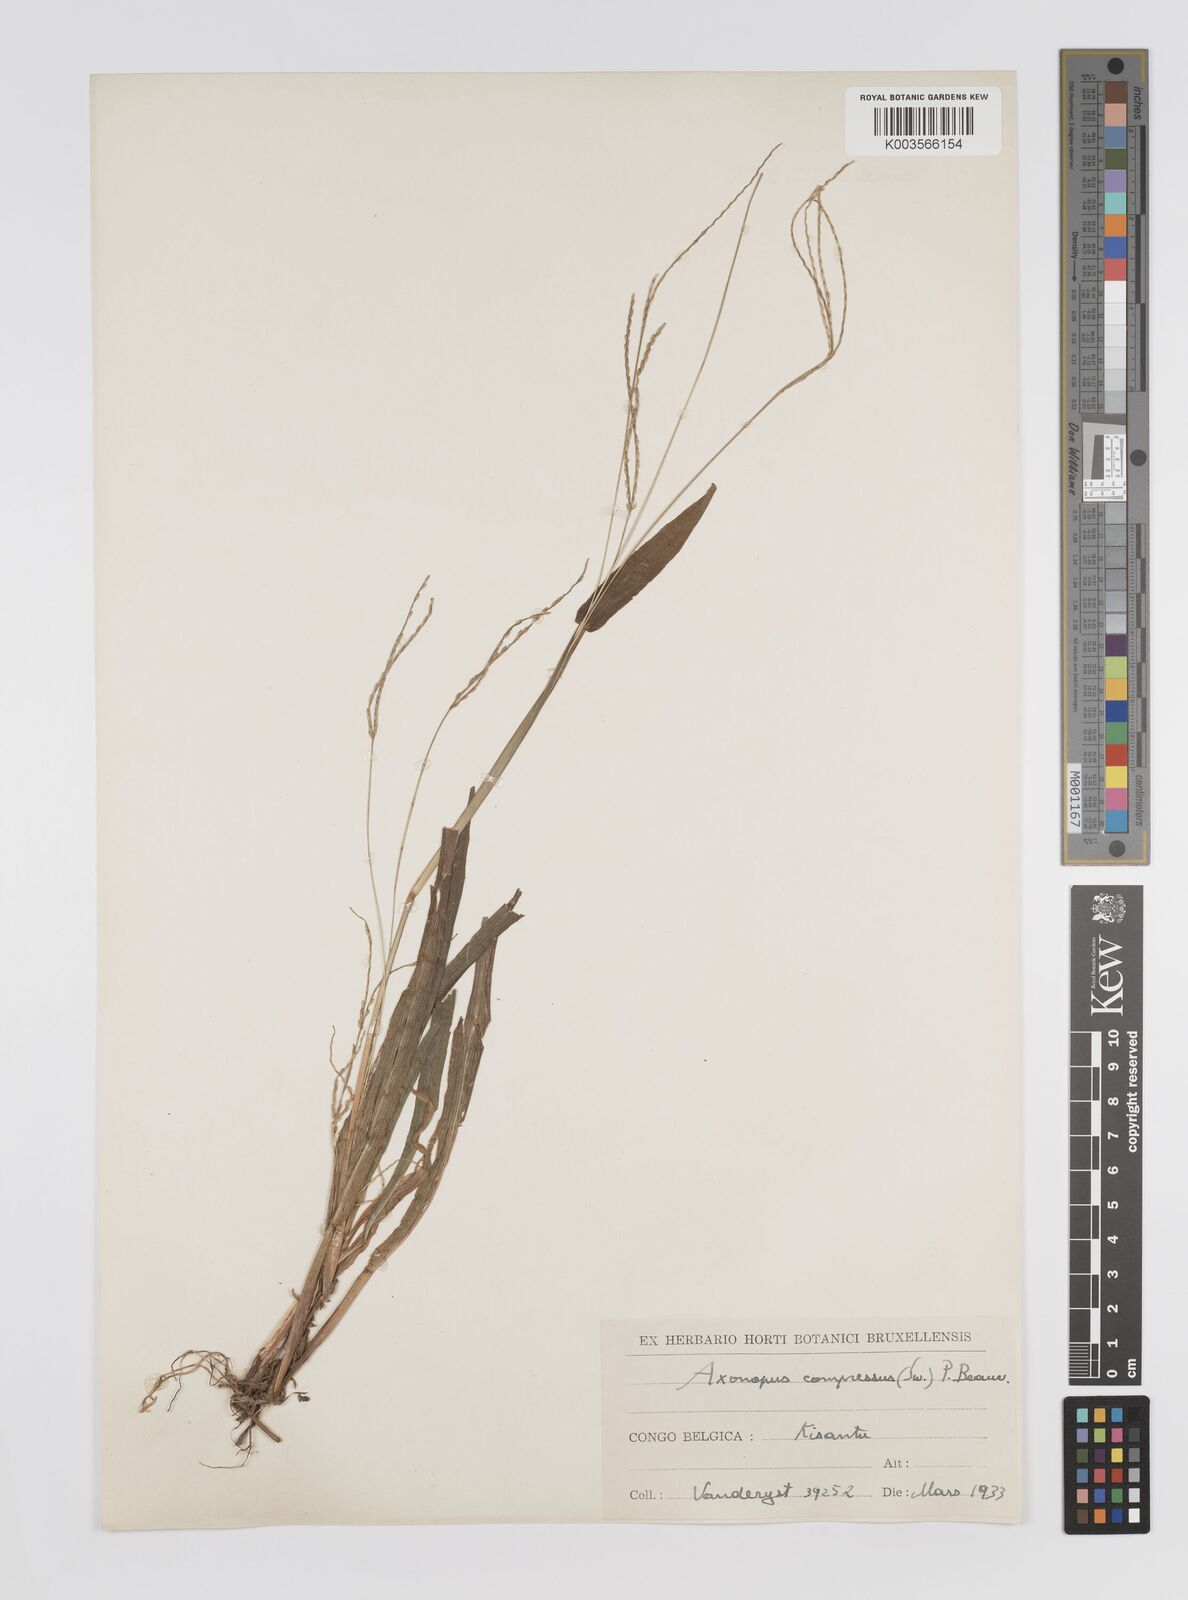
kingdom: Plantae
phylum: Tracheophyta
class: Liliopsida
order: Poales
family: Poaceae
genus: Axonopus
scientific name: Axonopus compressus
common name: American carpet grass
